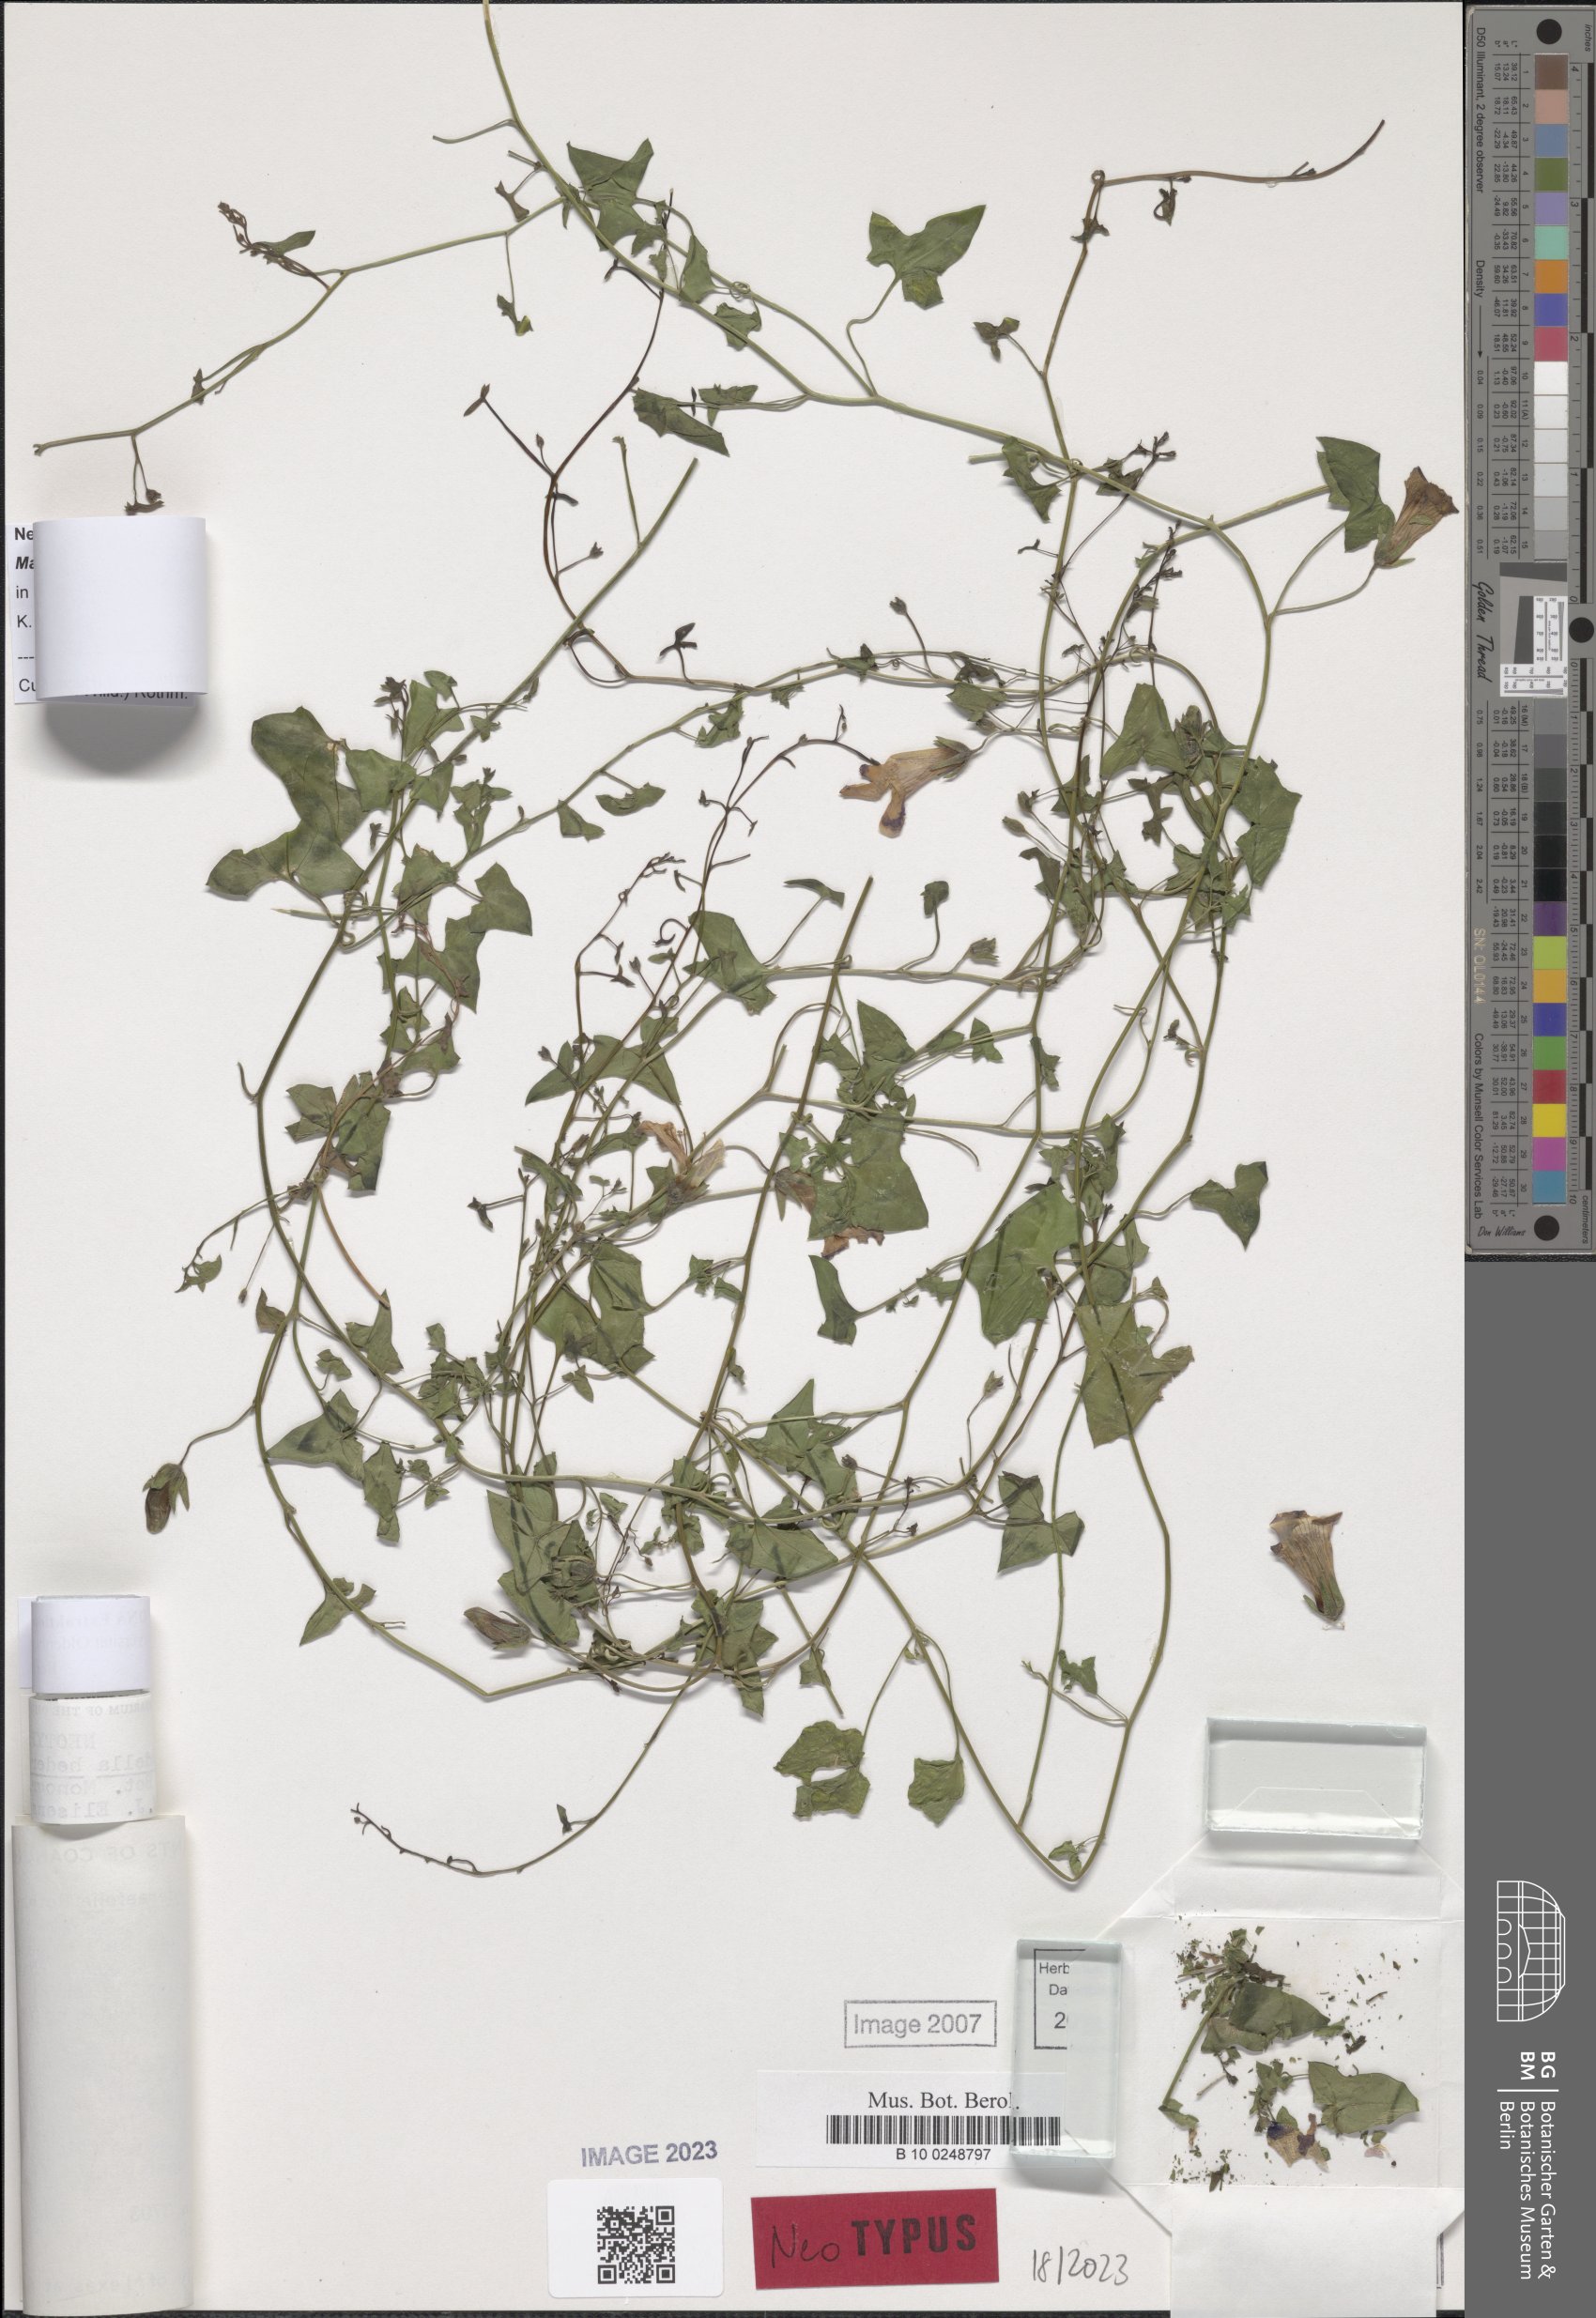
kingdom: Plantae
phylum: Tracheophyta
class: Magnoliopsida
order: Lamiales
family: Plantaginaceae
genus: Maurandella
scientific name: Maurandella antirrhiniflora
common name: Violet twining-snapdragon
